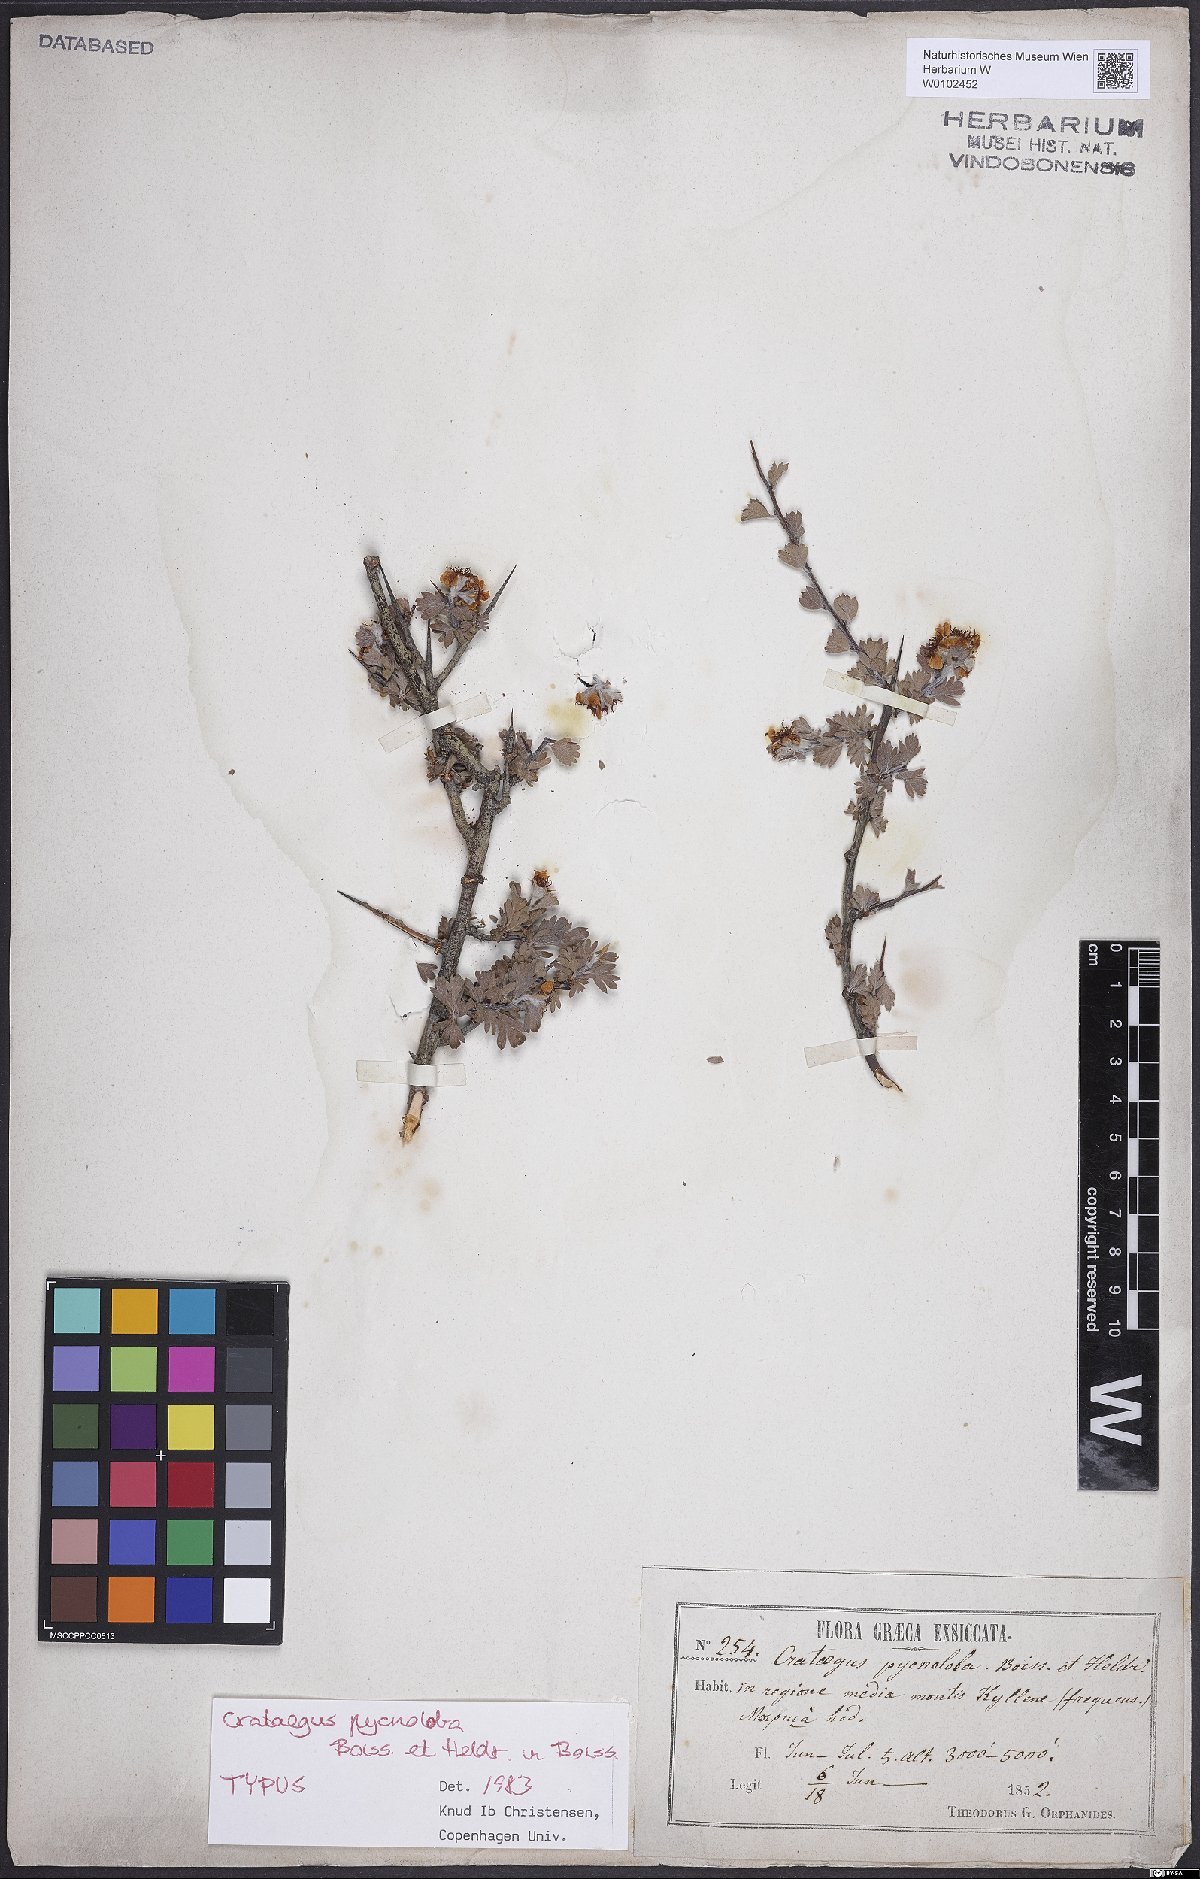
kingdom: Plantae
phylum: Tracheophyta
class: Magnoliopsida
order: Rosales
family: Rosaceae
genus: Crataegus
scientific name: Crataegus pycnoloba
